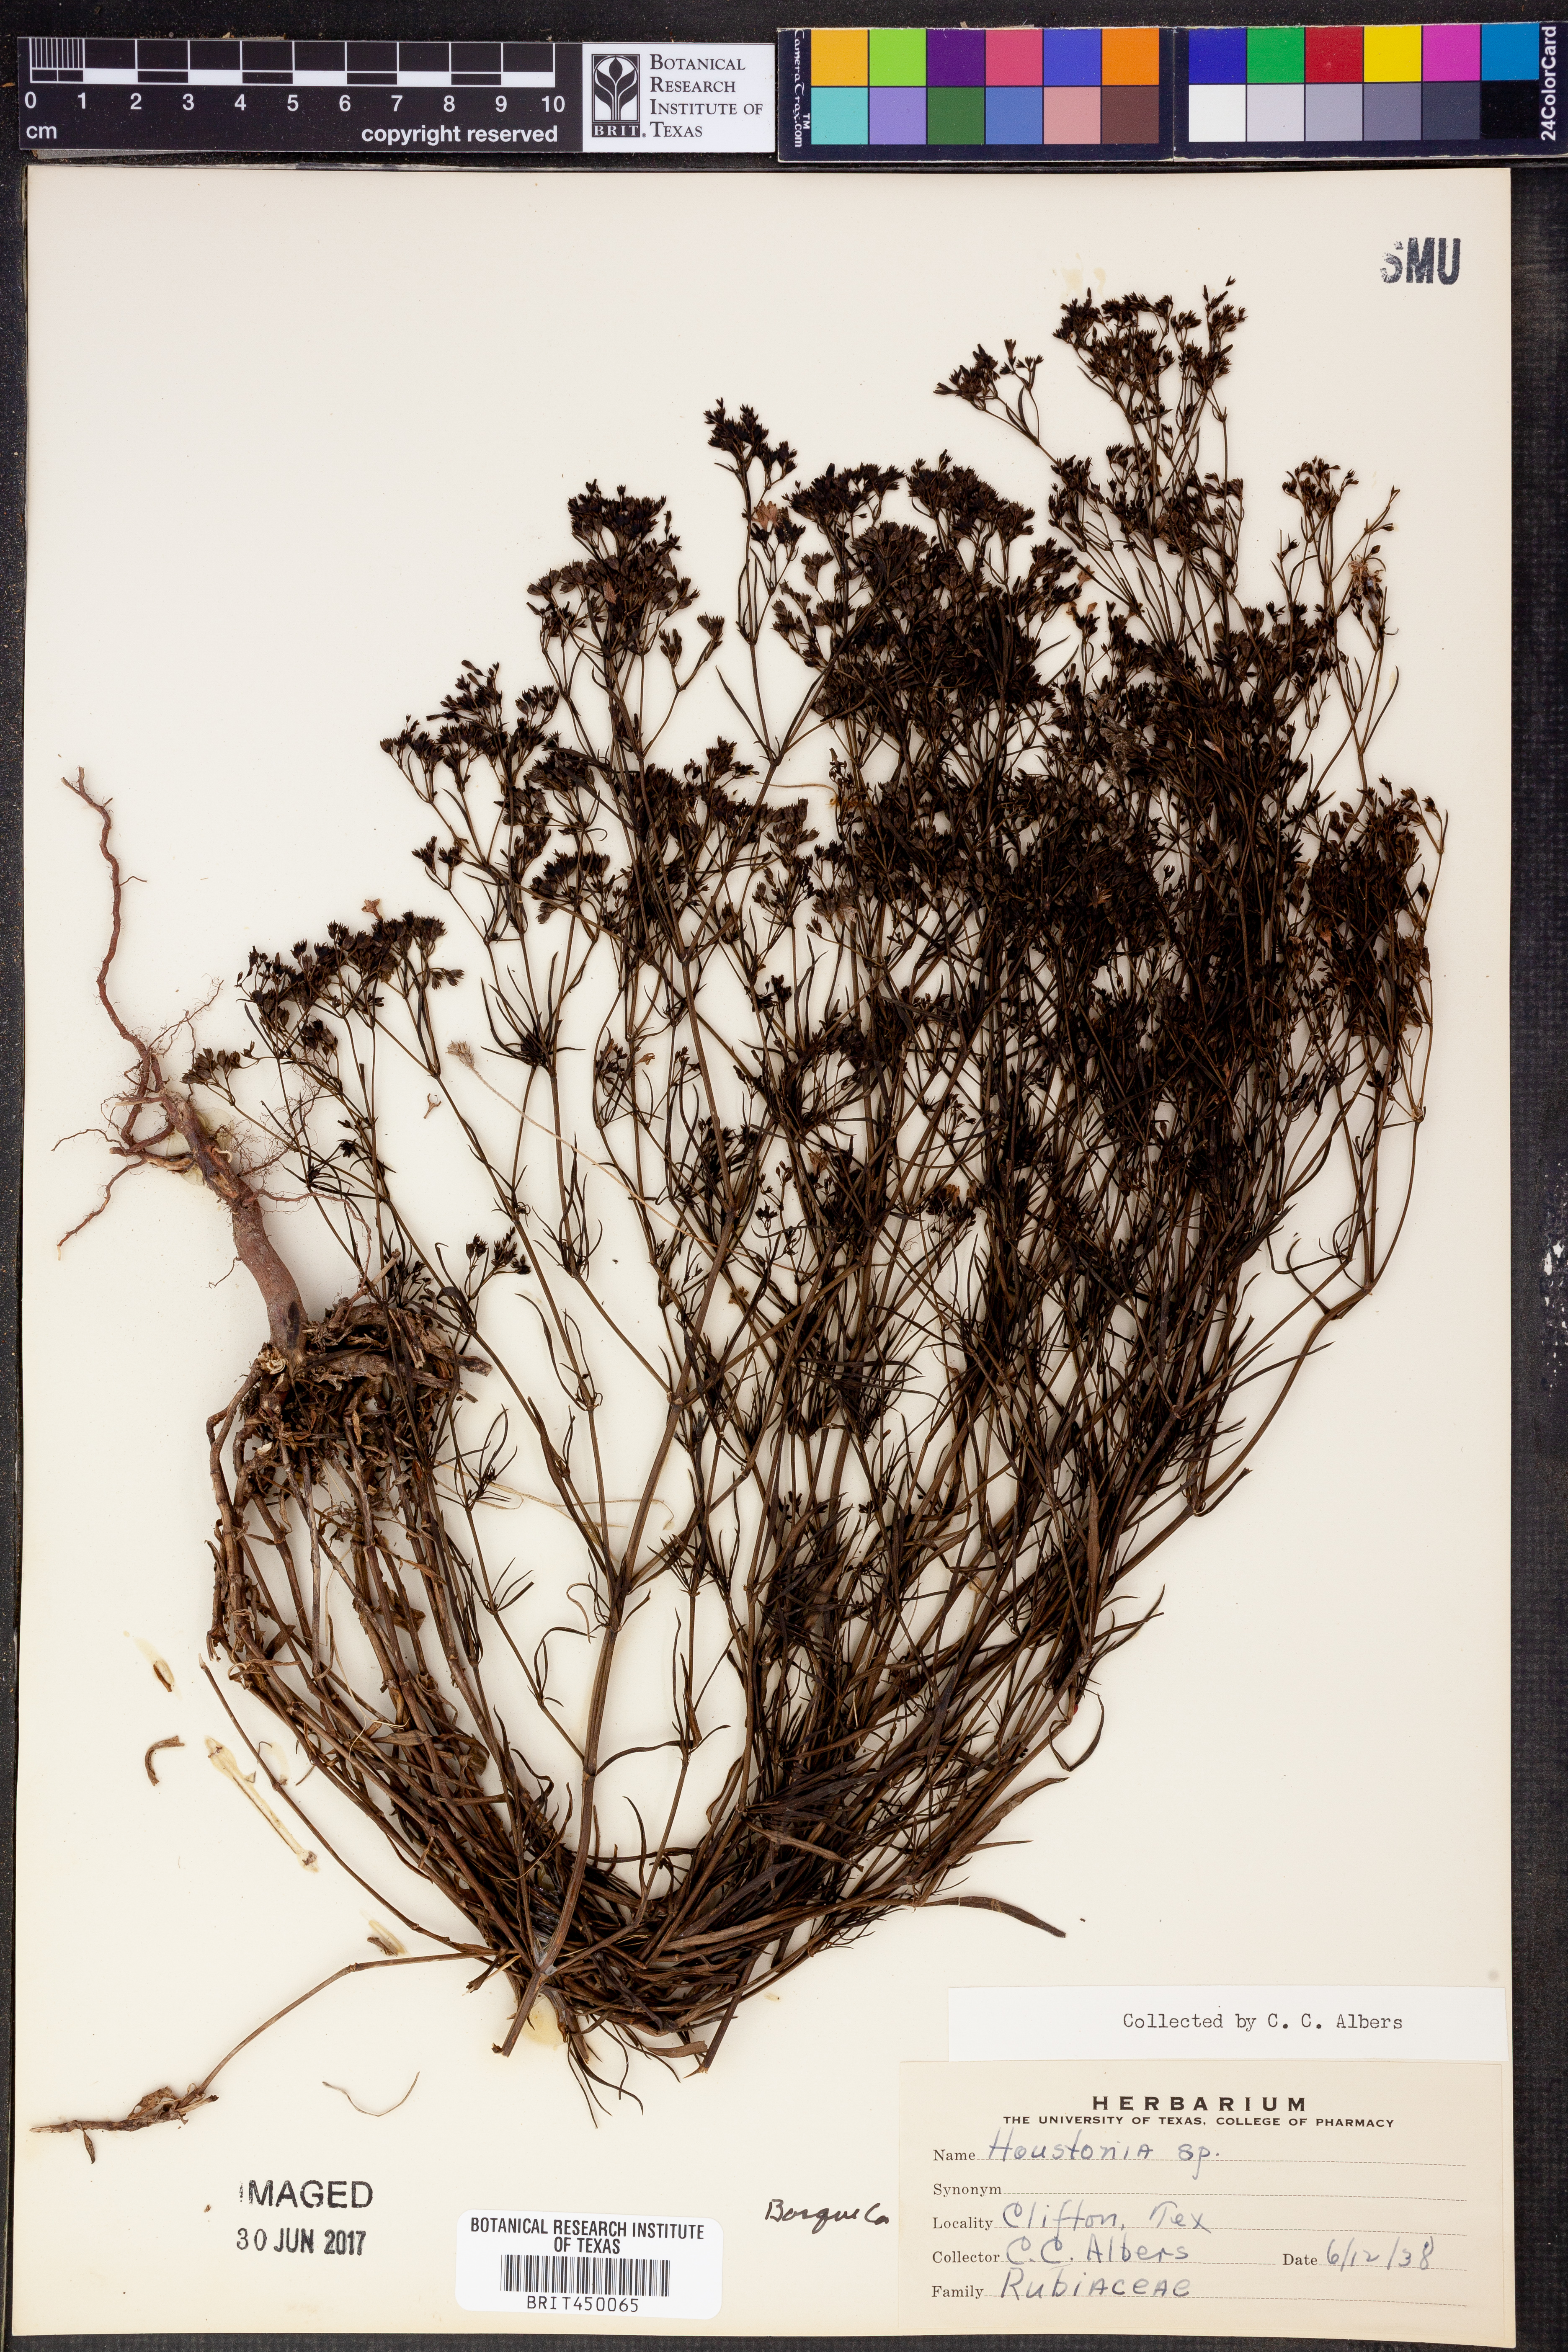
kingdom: Plantae
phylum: Tracheophyta
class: Magnoliopsida
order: Gentianales
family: Rubiaceae
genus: Houstonia
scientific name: Houstonia
